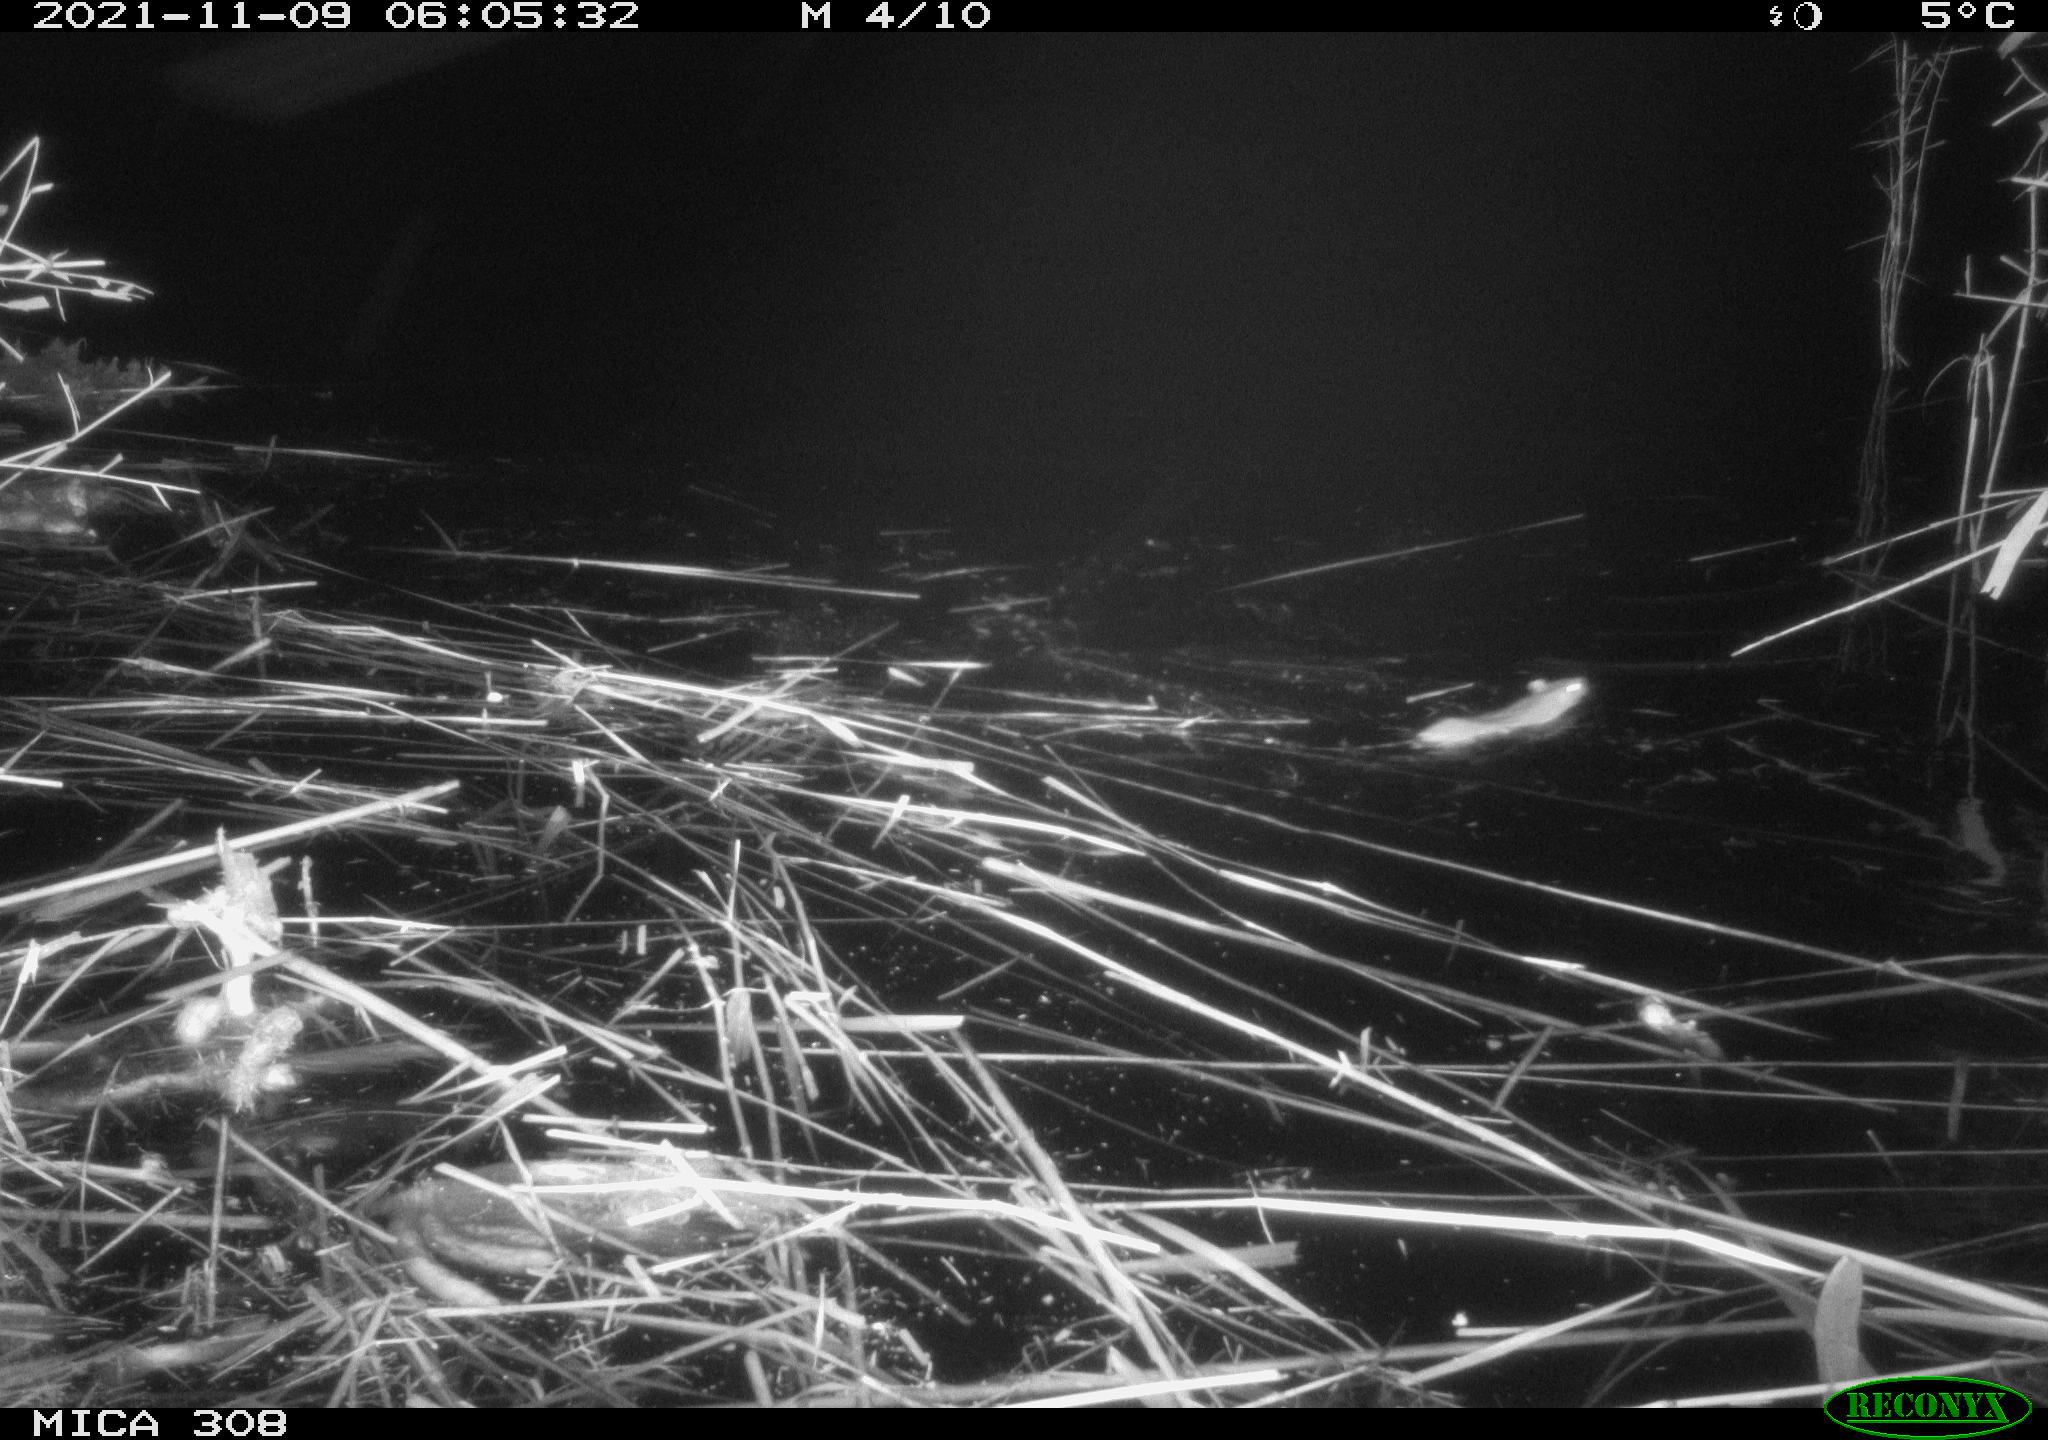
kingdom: Animalia
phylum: Chordata
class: Mammalia
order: Rodentia
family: Muridae
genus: Rattus
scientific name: Rattus norvegicus
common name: Brown rat
